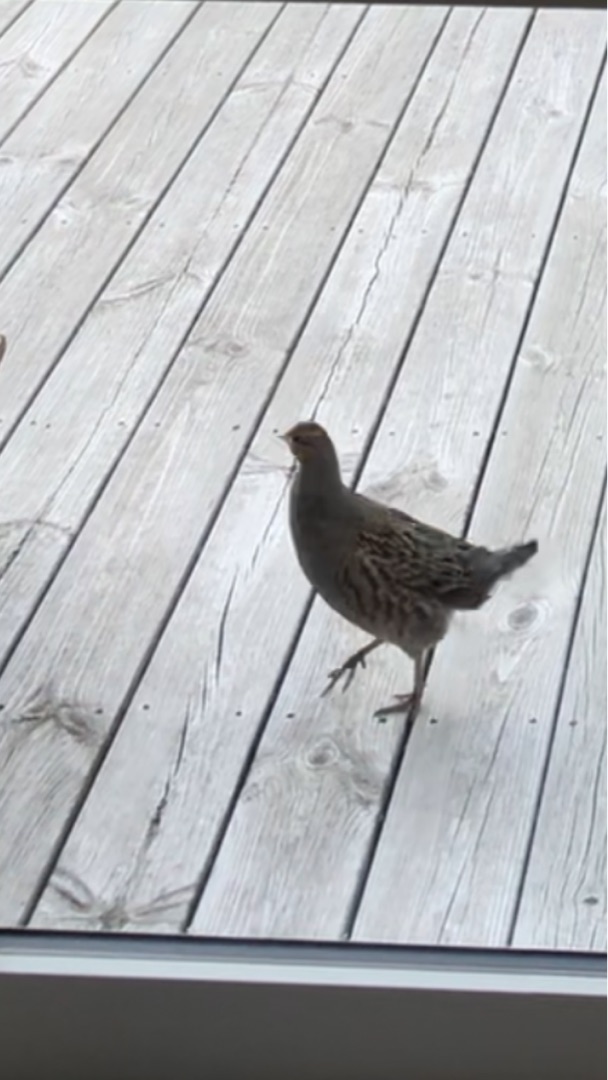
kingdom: Animalia
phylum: Chordata
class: Aves
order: Galliformes
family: Phasianidae
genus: Perdix
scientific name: Perdix perdix
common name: Agerhøne
